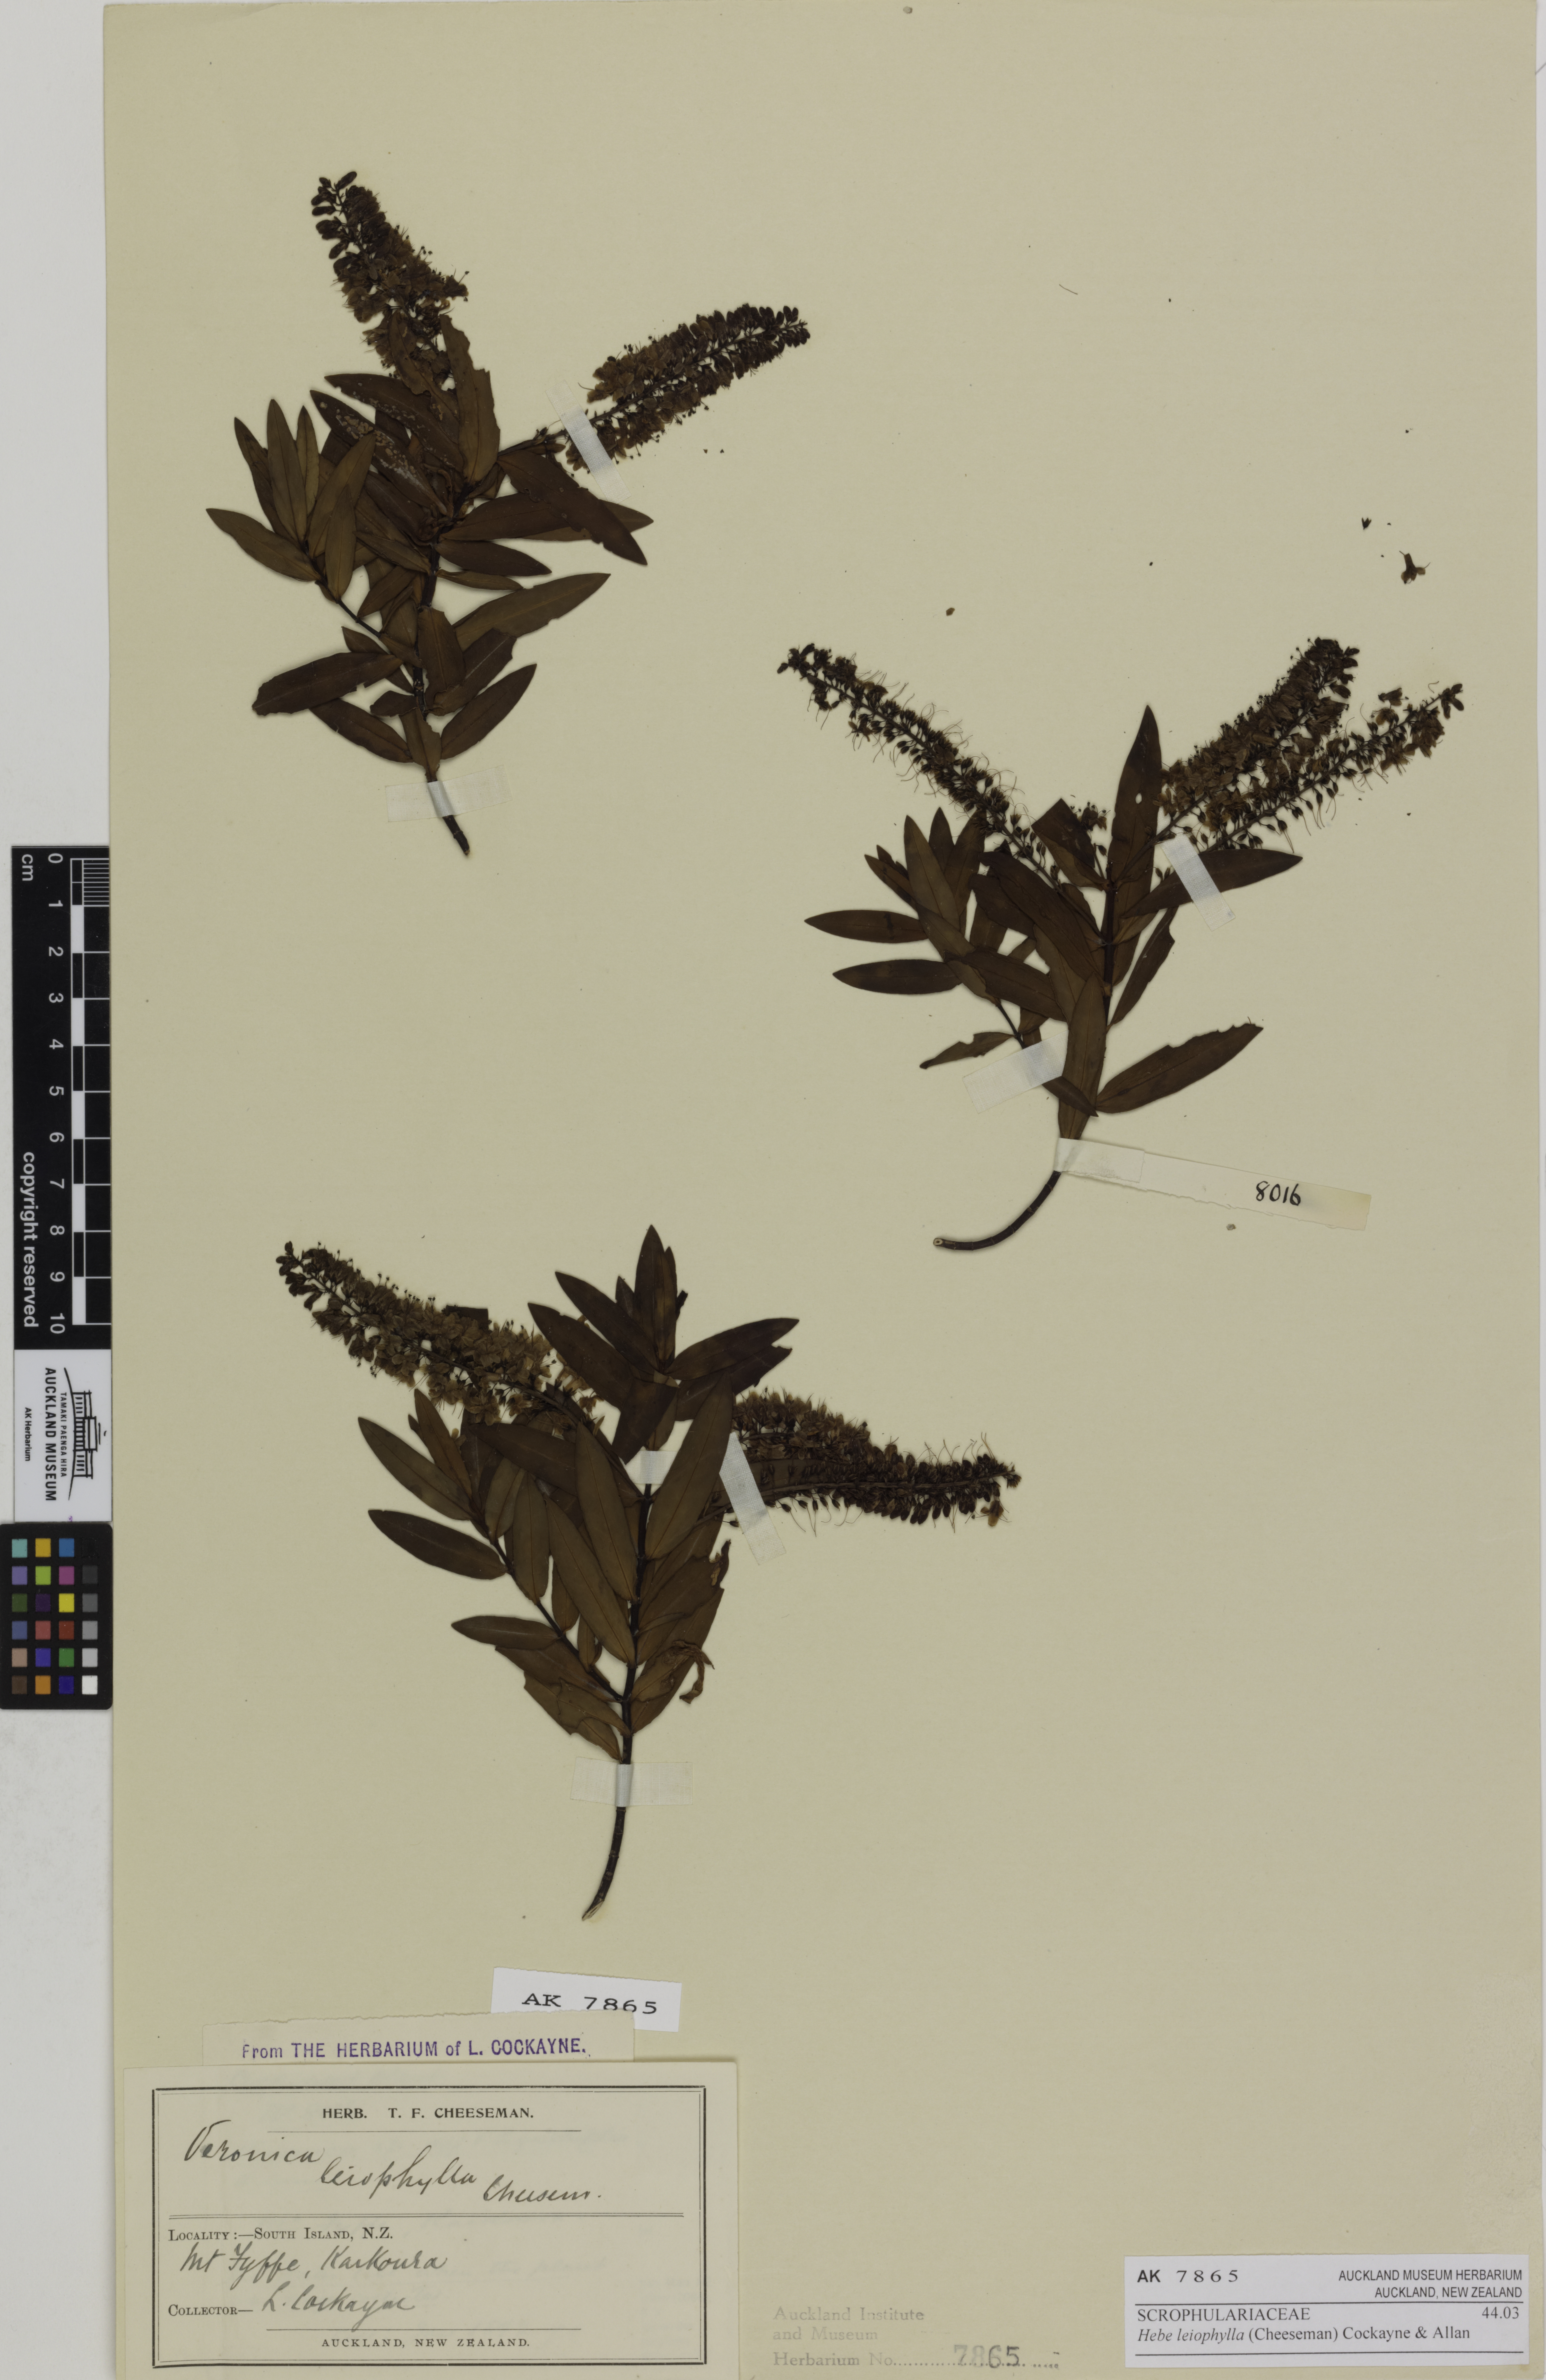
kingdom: Plantae
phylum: Tracheophyta
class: Magnoliopsida
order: Lamiales
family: Plantaginaceae
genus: Veronica
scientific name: Veronica leiophylla
